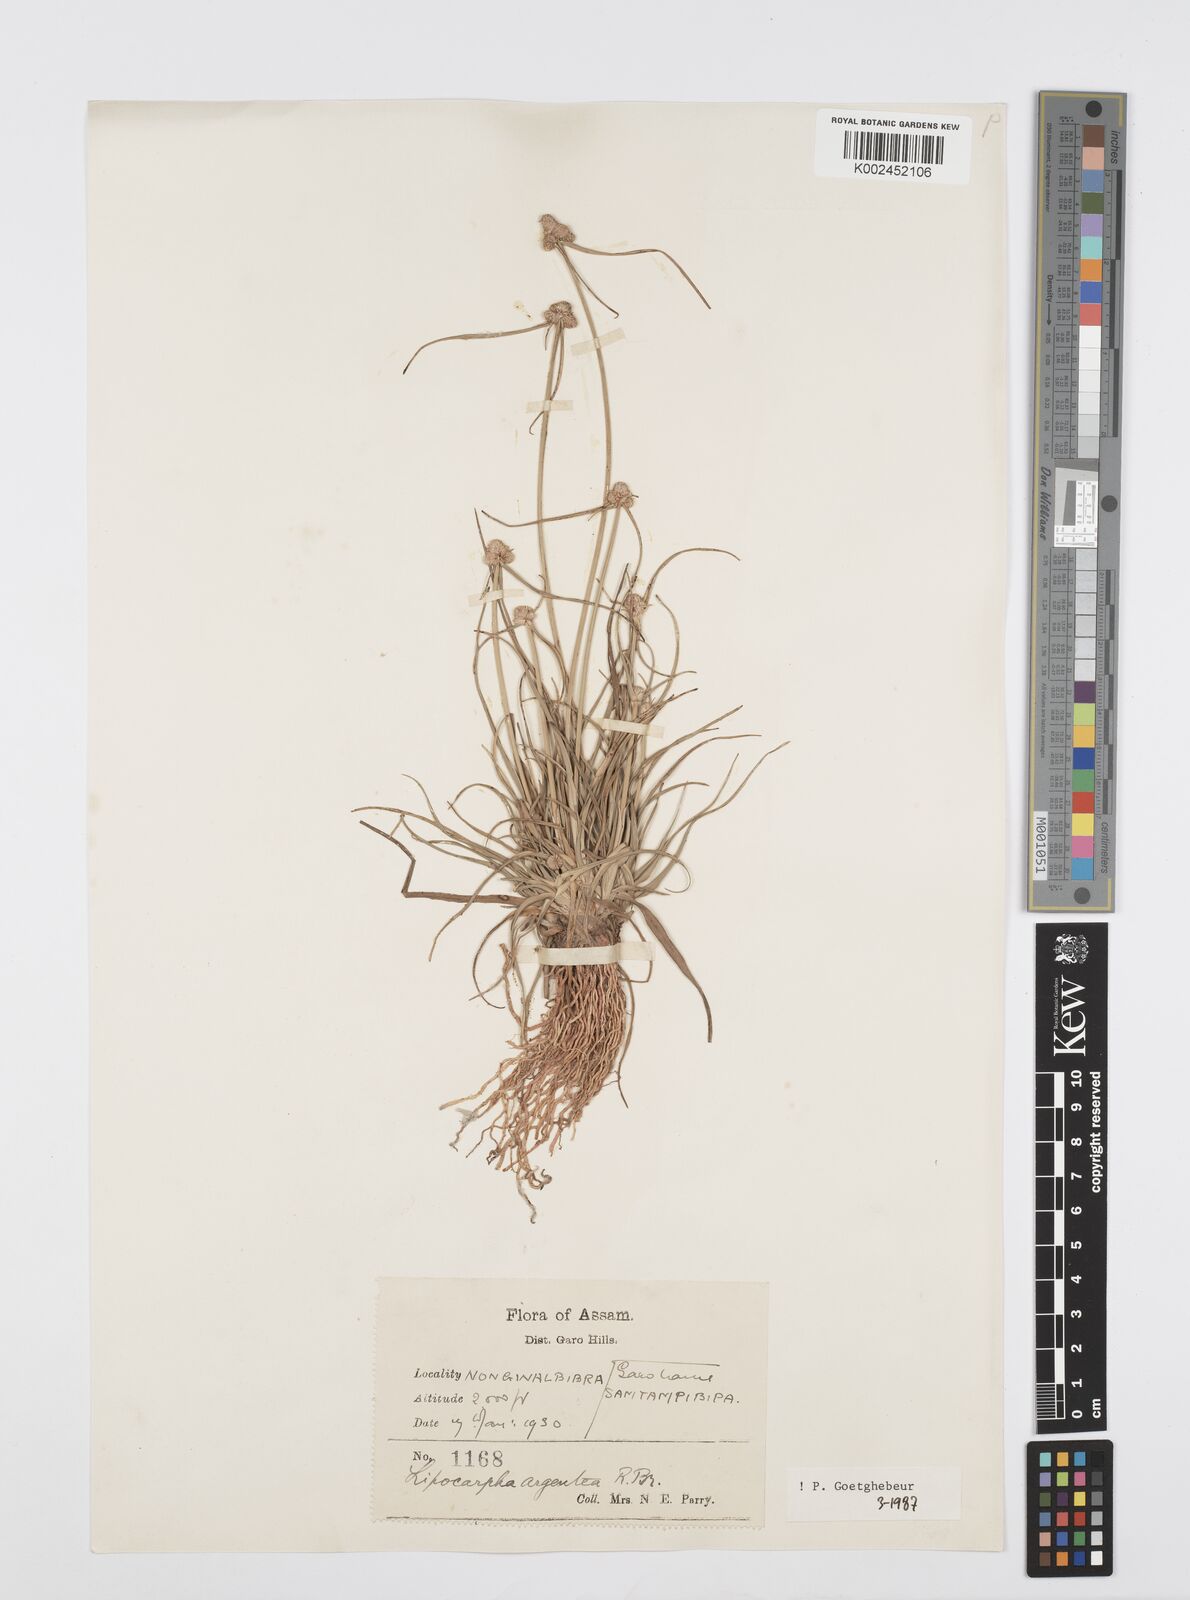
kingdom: Plantae
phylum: Tracheophyta
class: Liliopsida
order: Poales
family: Cyperaceae
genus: Cyperus
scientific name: Cyperus
